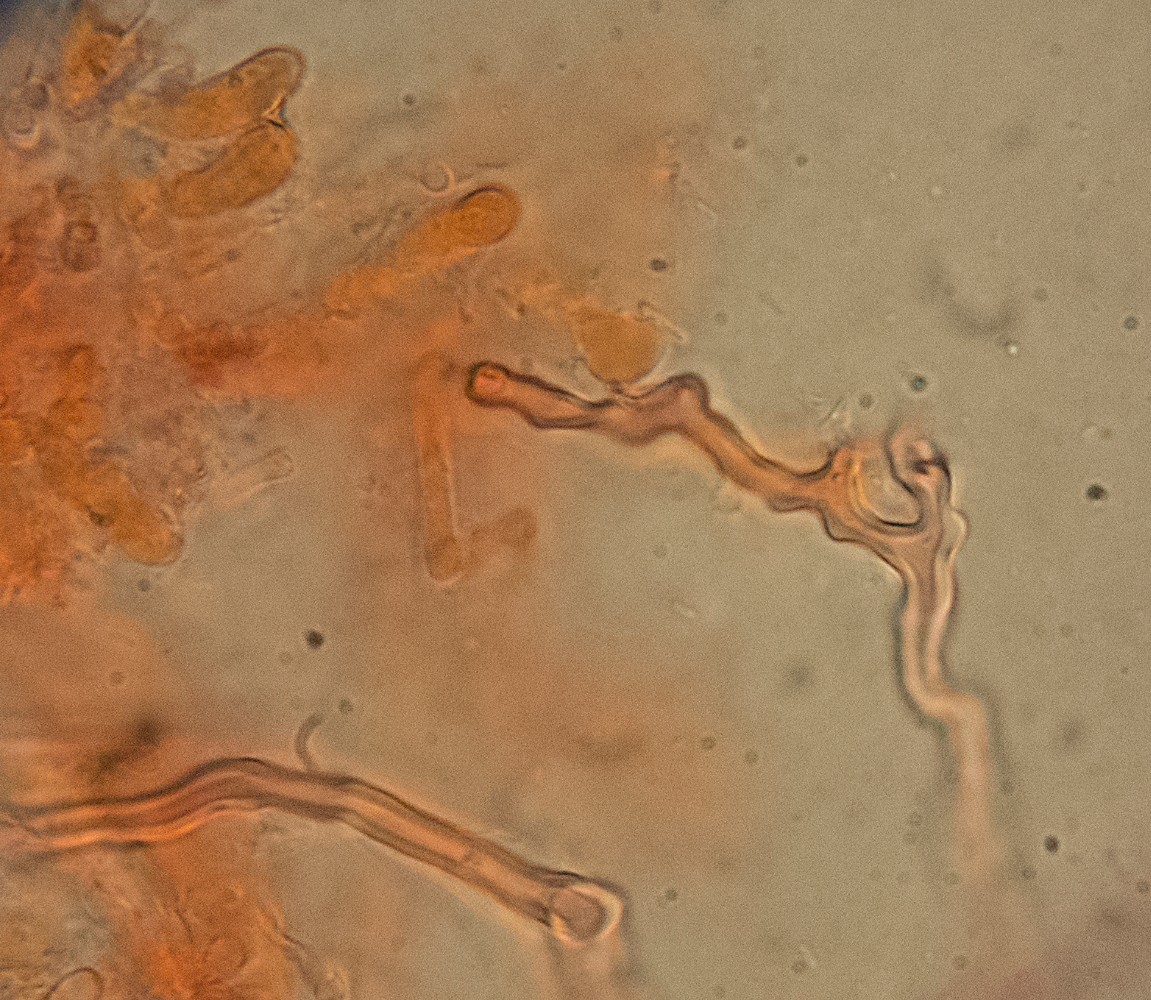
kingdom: Fungi
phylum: Basidiomycota
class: Agaricomycetes
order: Polyporales
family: Polyporaceae
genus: Trametes
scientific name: Trametes pubescens
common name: dunet læderporesvamp
